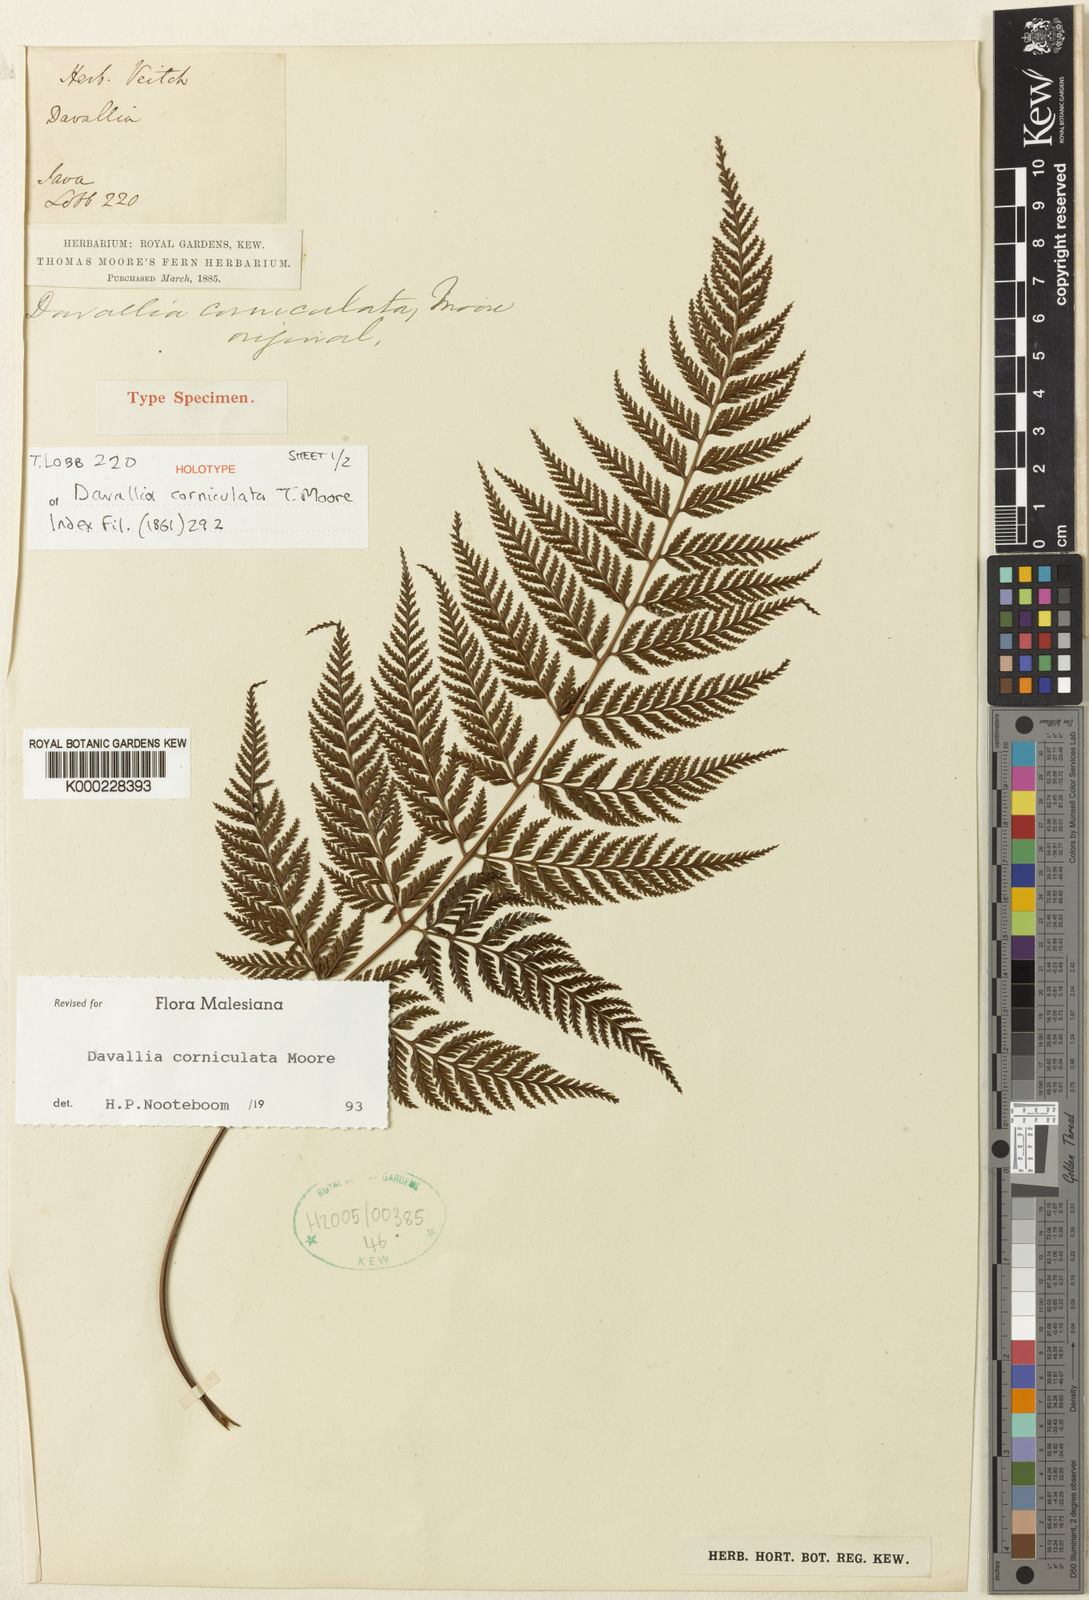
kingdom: Plantae
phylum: Tracheophyta
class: Polypodiopsida
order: Polypodiales
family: Davalliaceae
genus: Davallia
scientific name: Davallia corniculata
